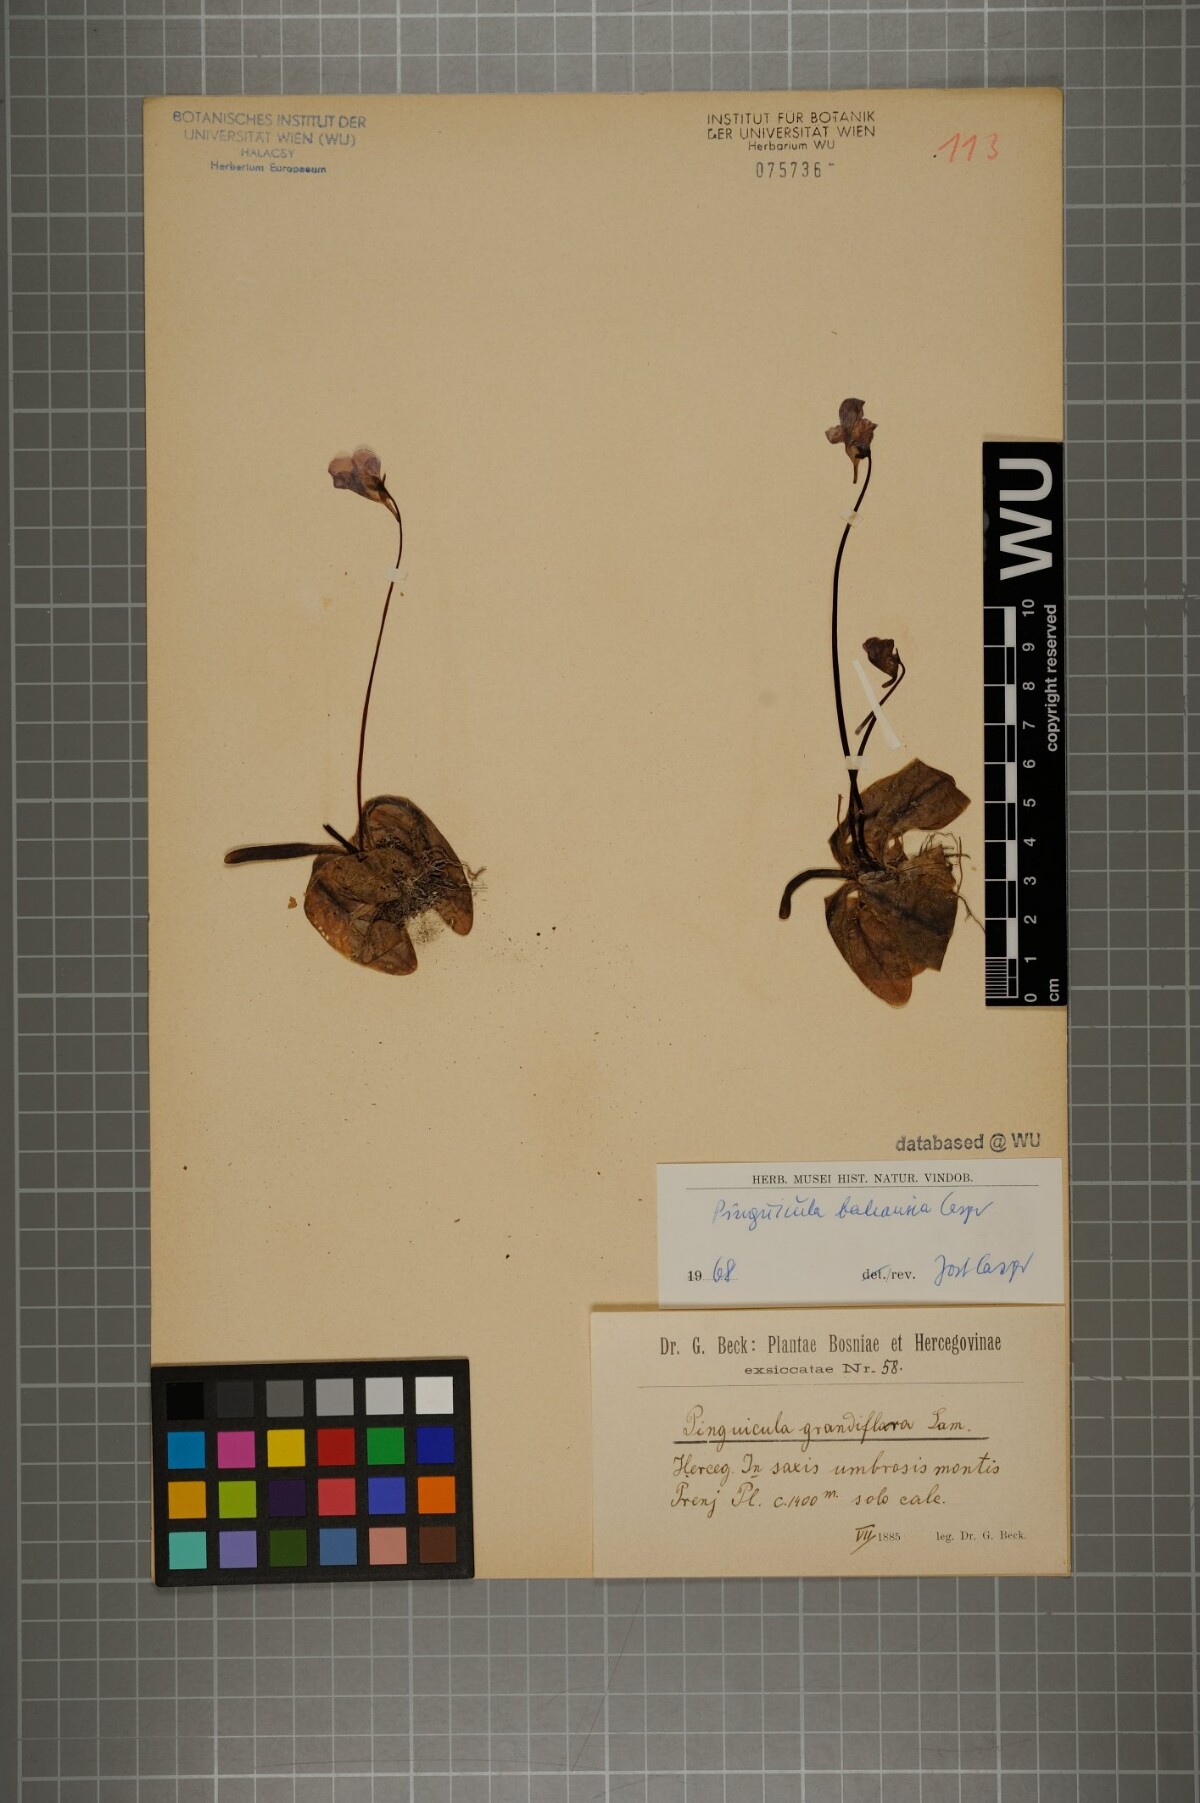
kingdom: Plantae
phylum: Tracheophyta
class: Magnoliopsida
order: Lamiales
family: Lentibulariaceae
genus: Pinguicula
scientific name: Pinguicula balcanica
